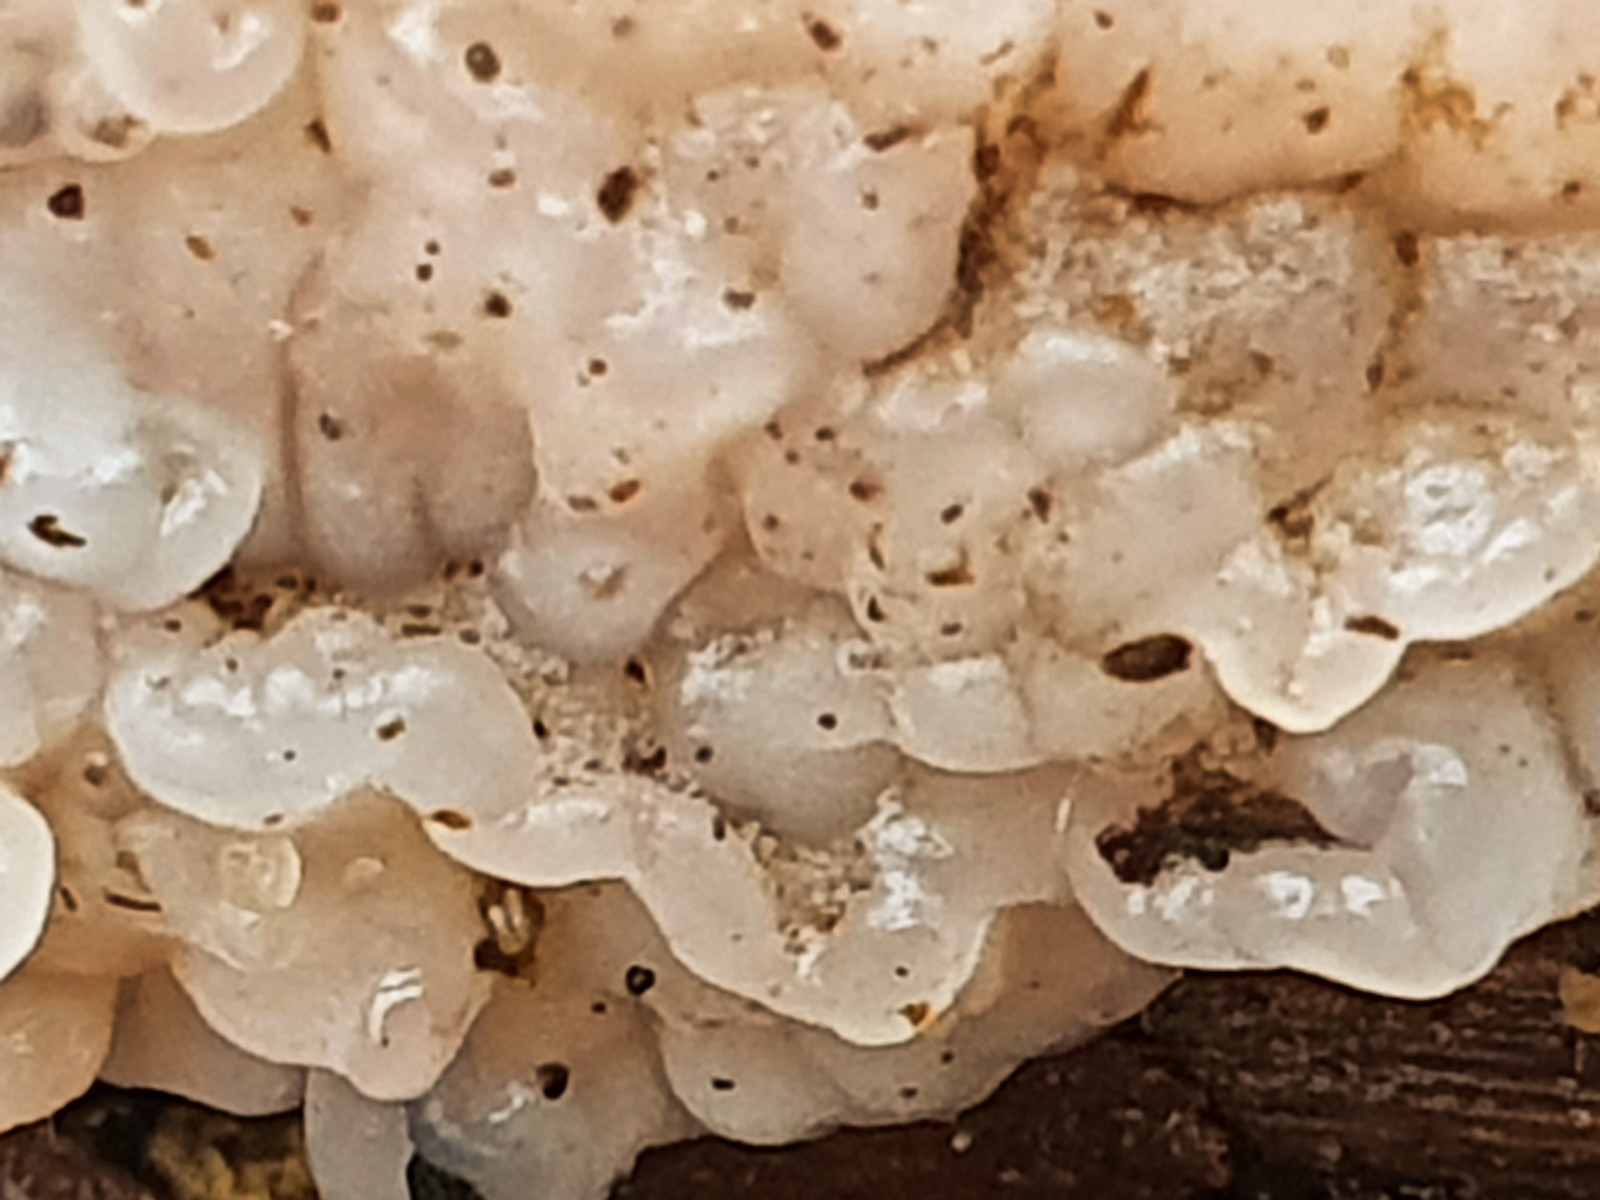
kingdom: Fungi
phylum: Basidiomycota
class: Agaricomycetes
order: Auriculariales
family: Auriculariaceae
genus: Exidia
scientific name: Exidia thuretiana
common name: hvidlig bævretop
